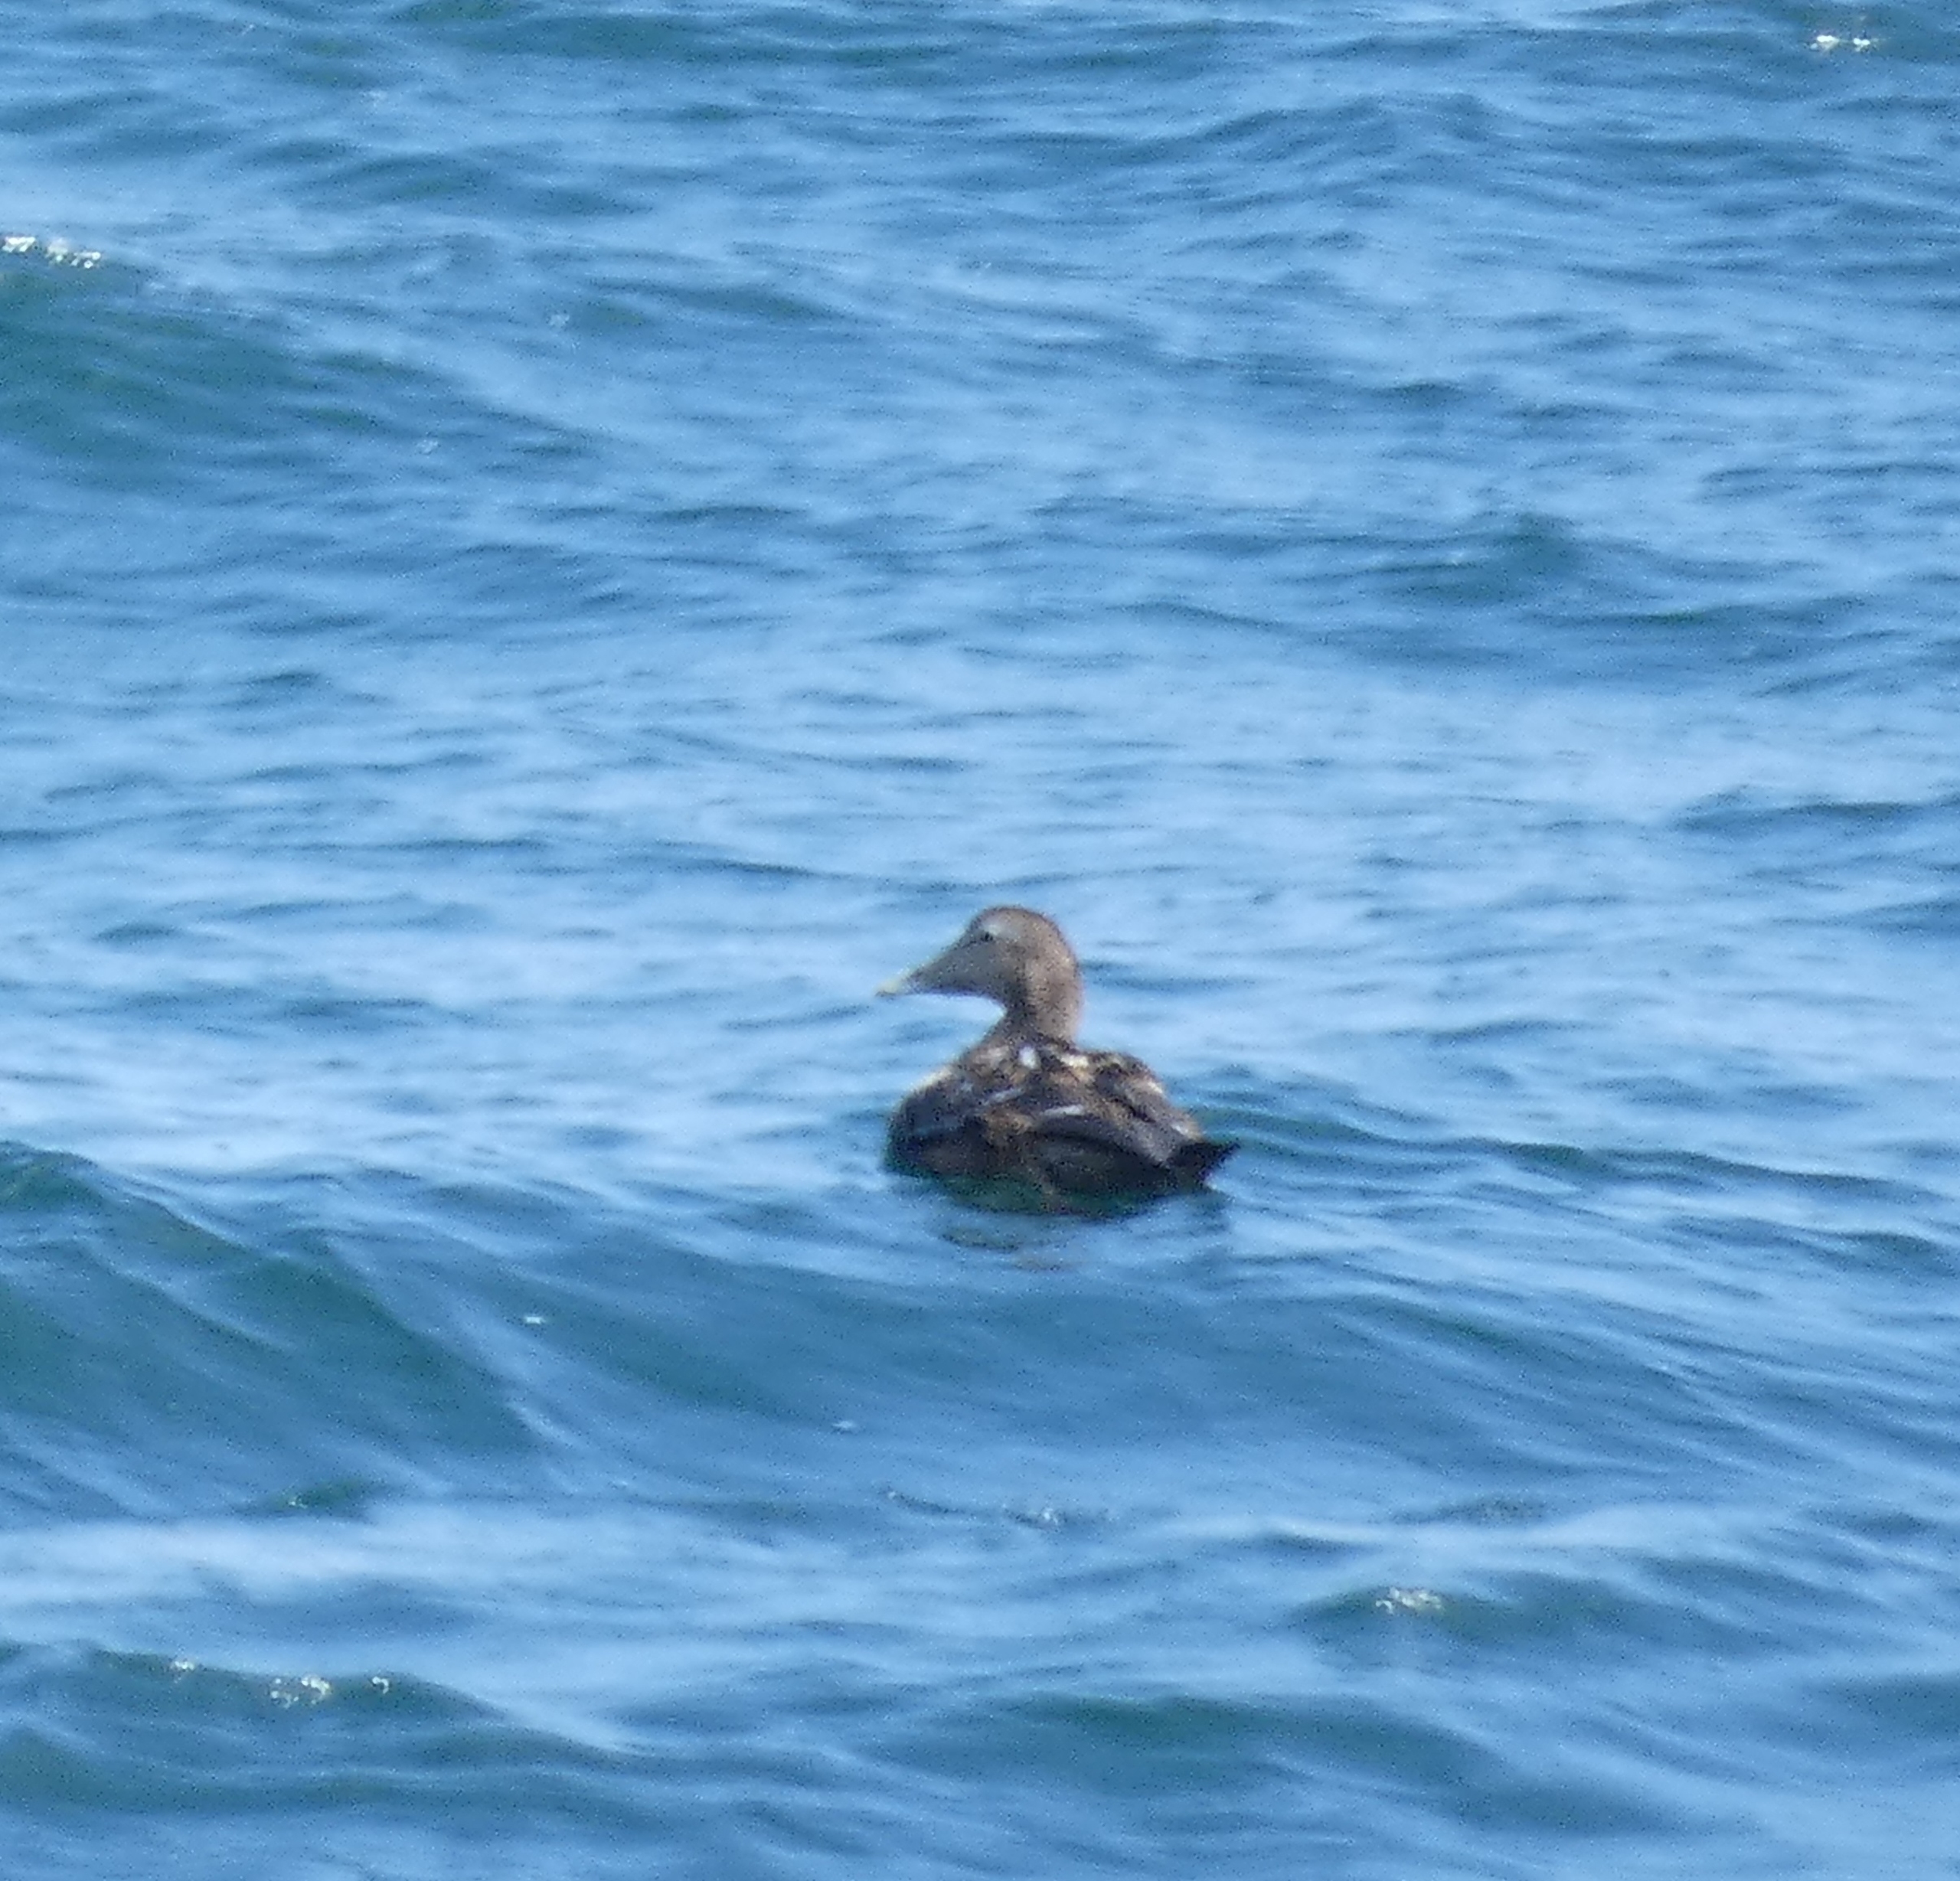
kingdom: Animalia
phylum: Chordata
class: Aves
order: Anseriformes
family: Anatidae
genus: Somateria
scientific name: Somateria mollissima
